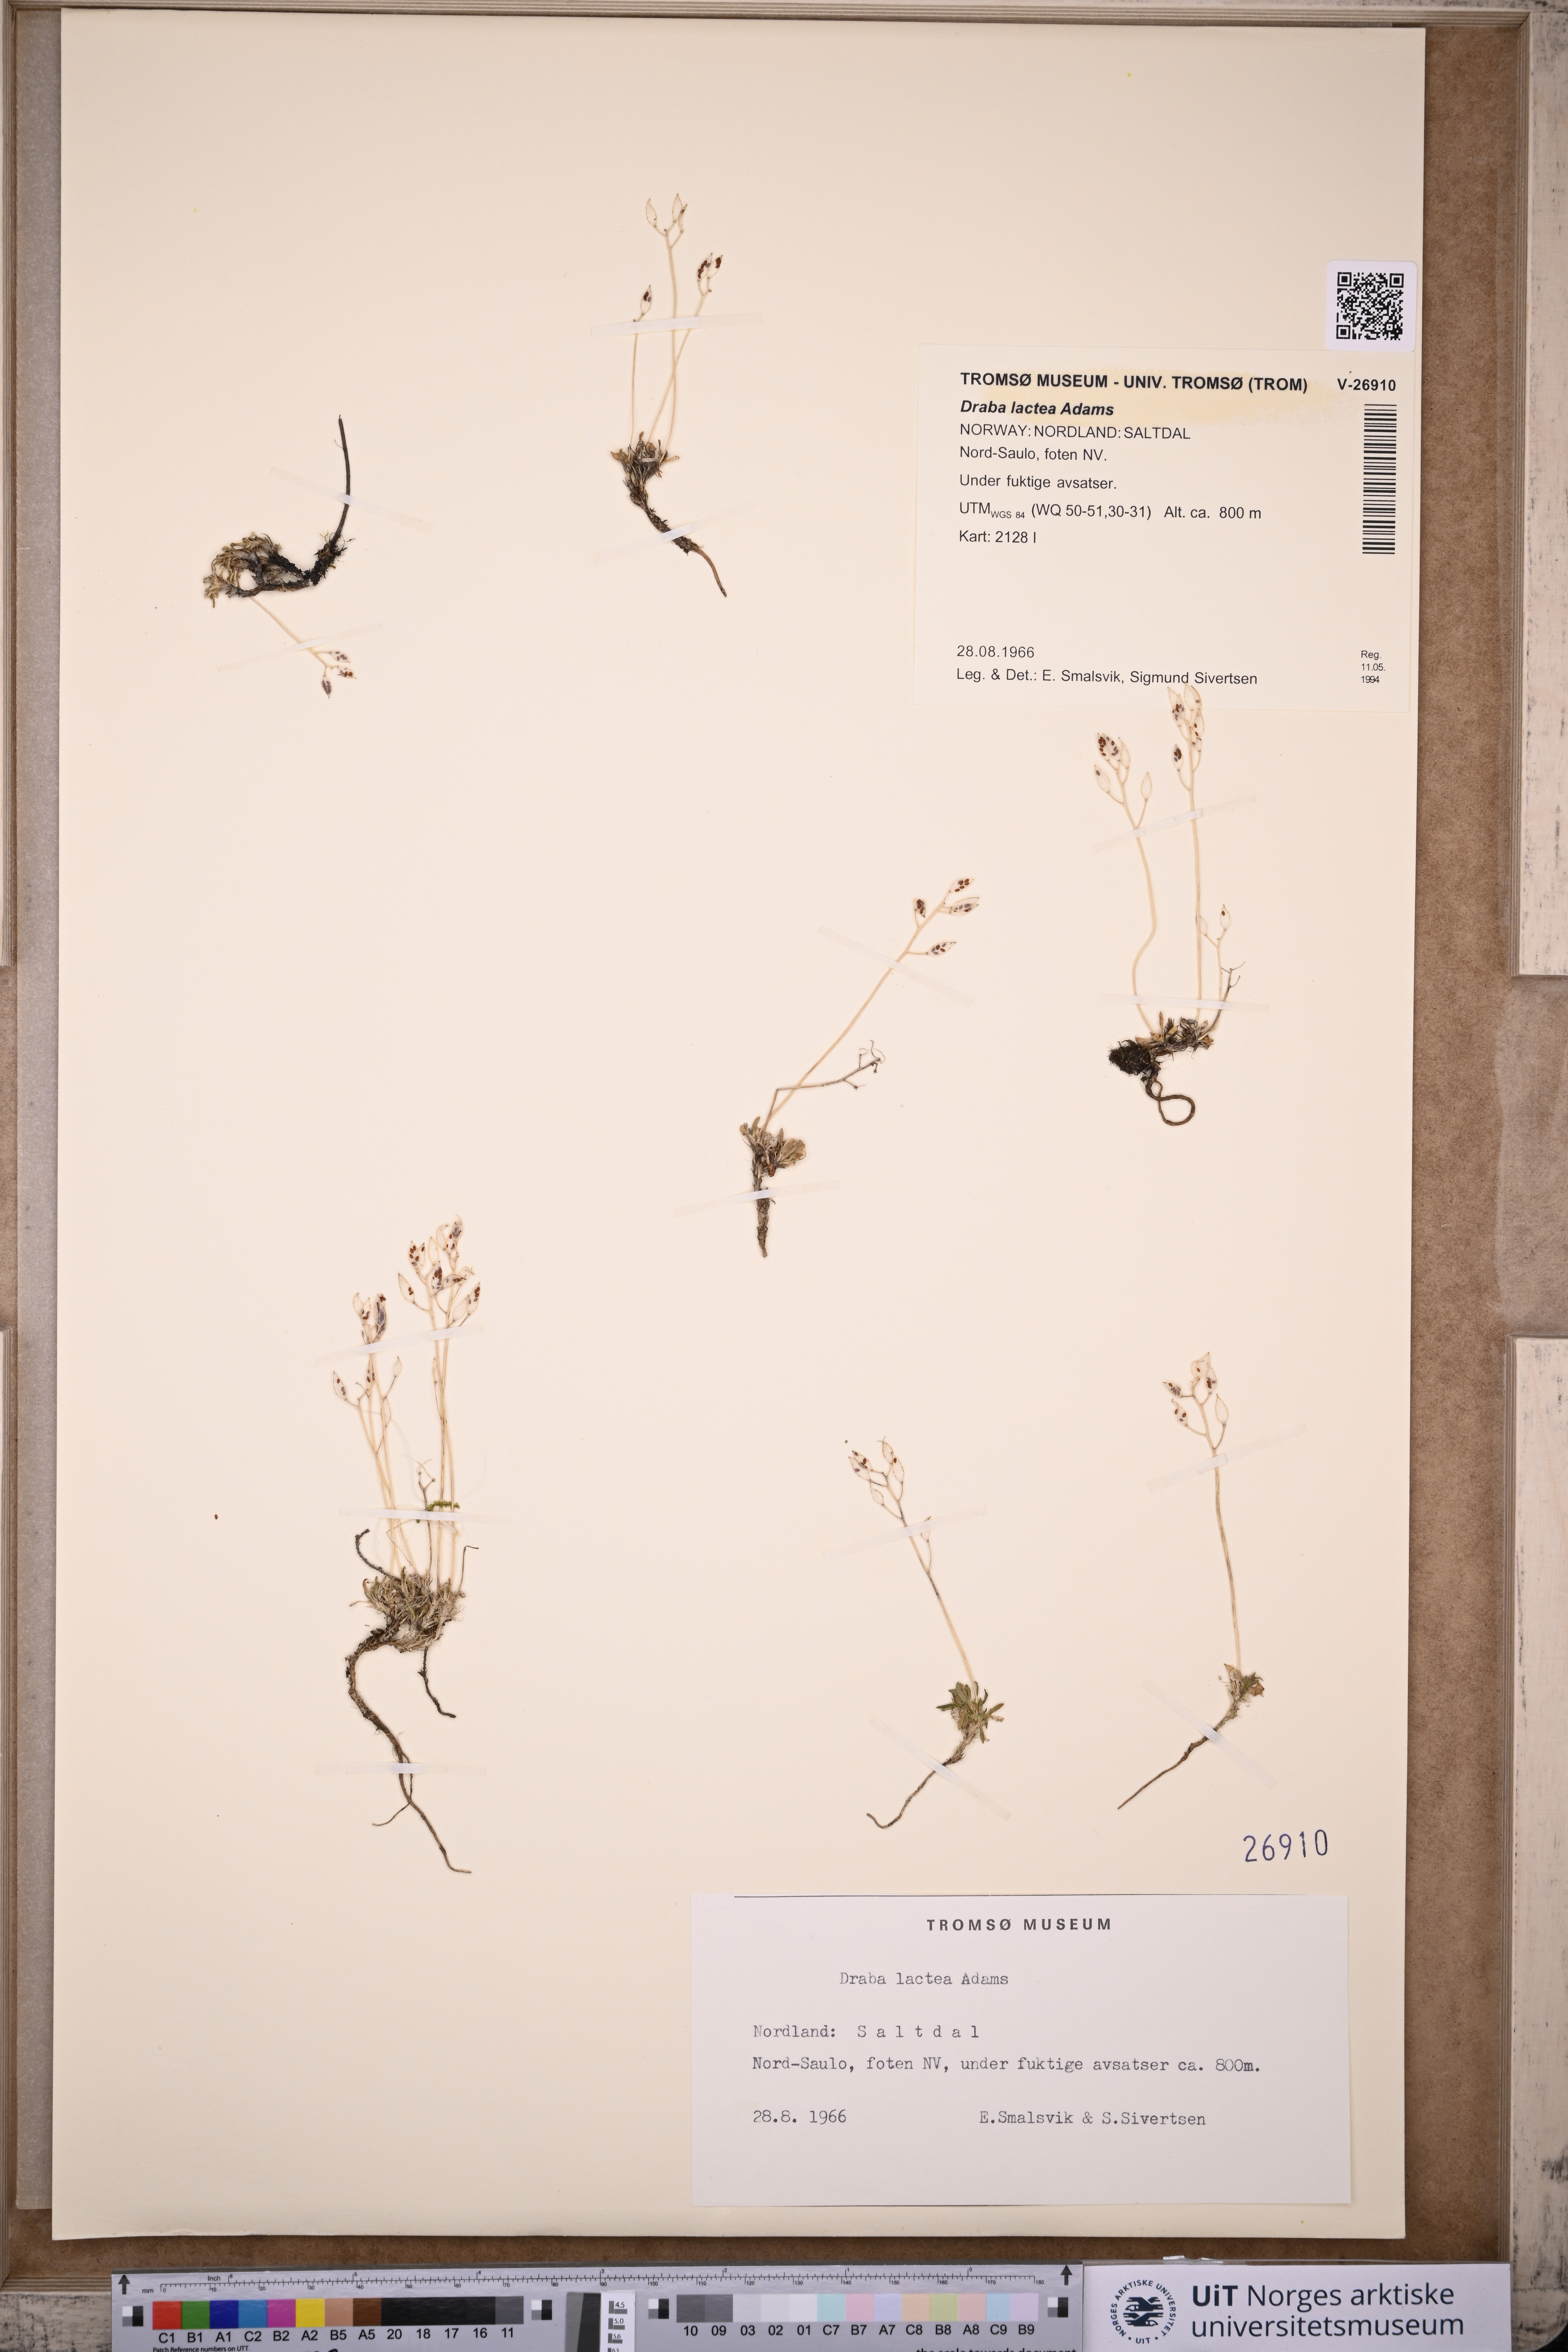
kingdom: Plantae
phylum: Tracheophyta
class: Magnoliopsida
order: Brassicales
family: Brassicaceae
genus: Draba
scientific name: Draba lactea
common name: Milky draba
